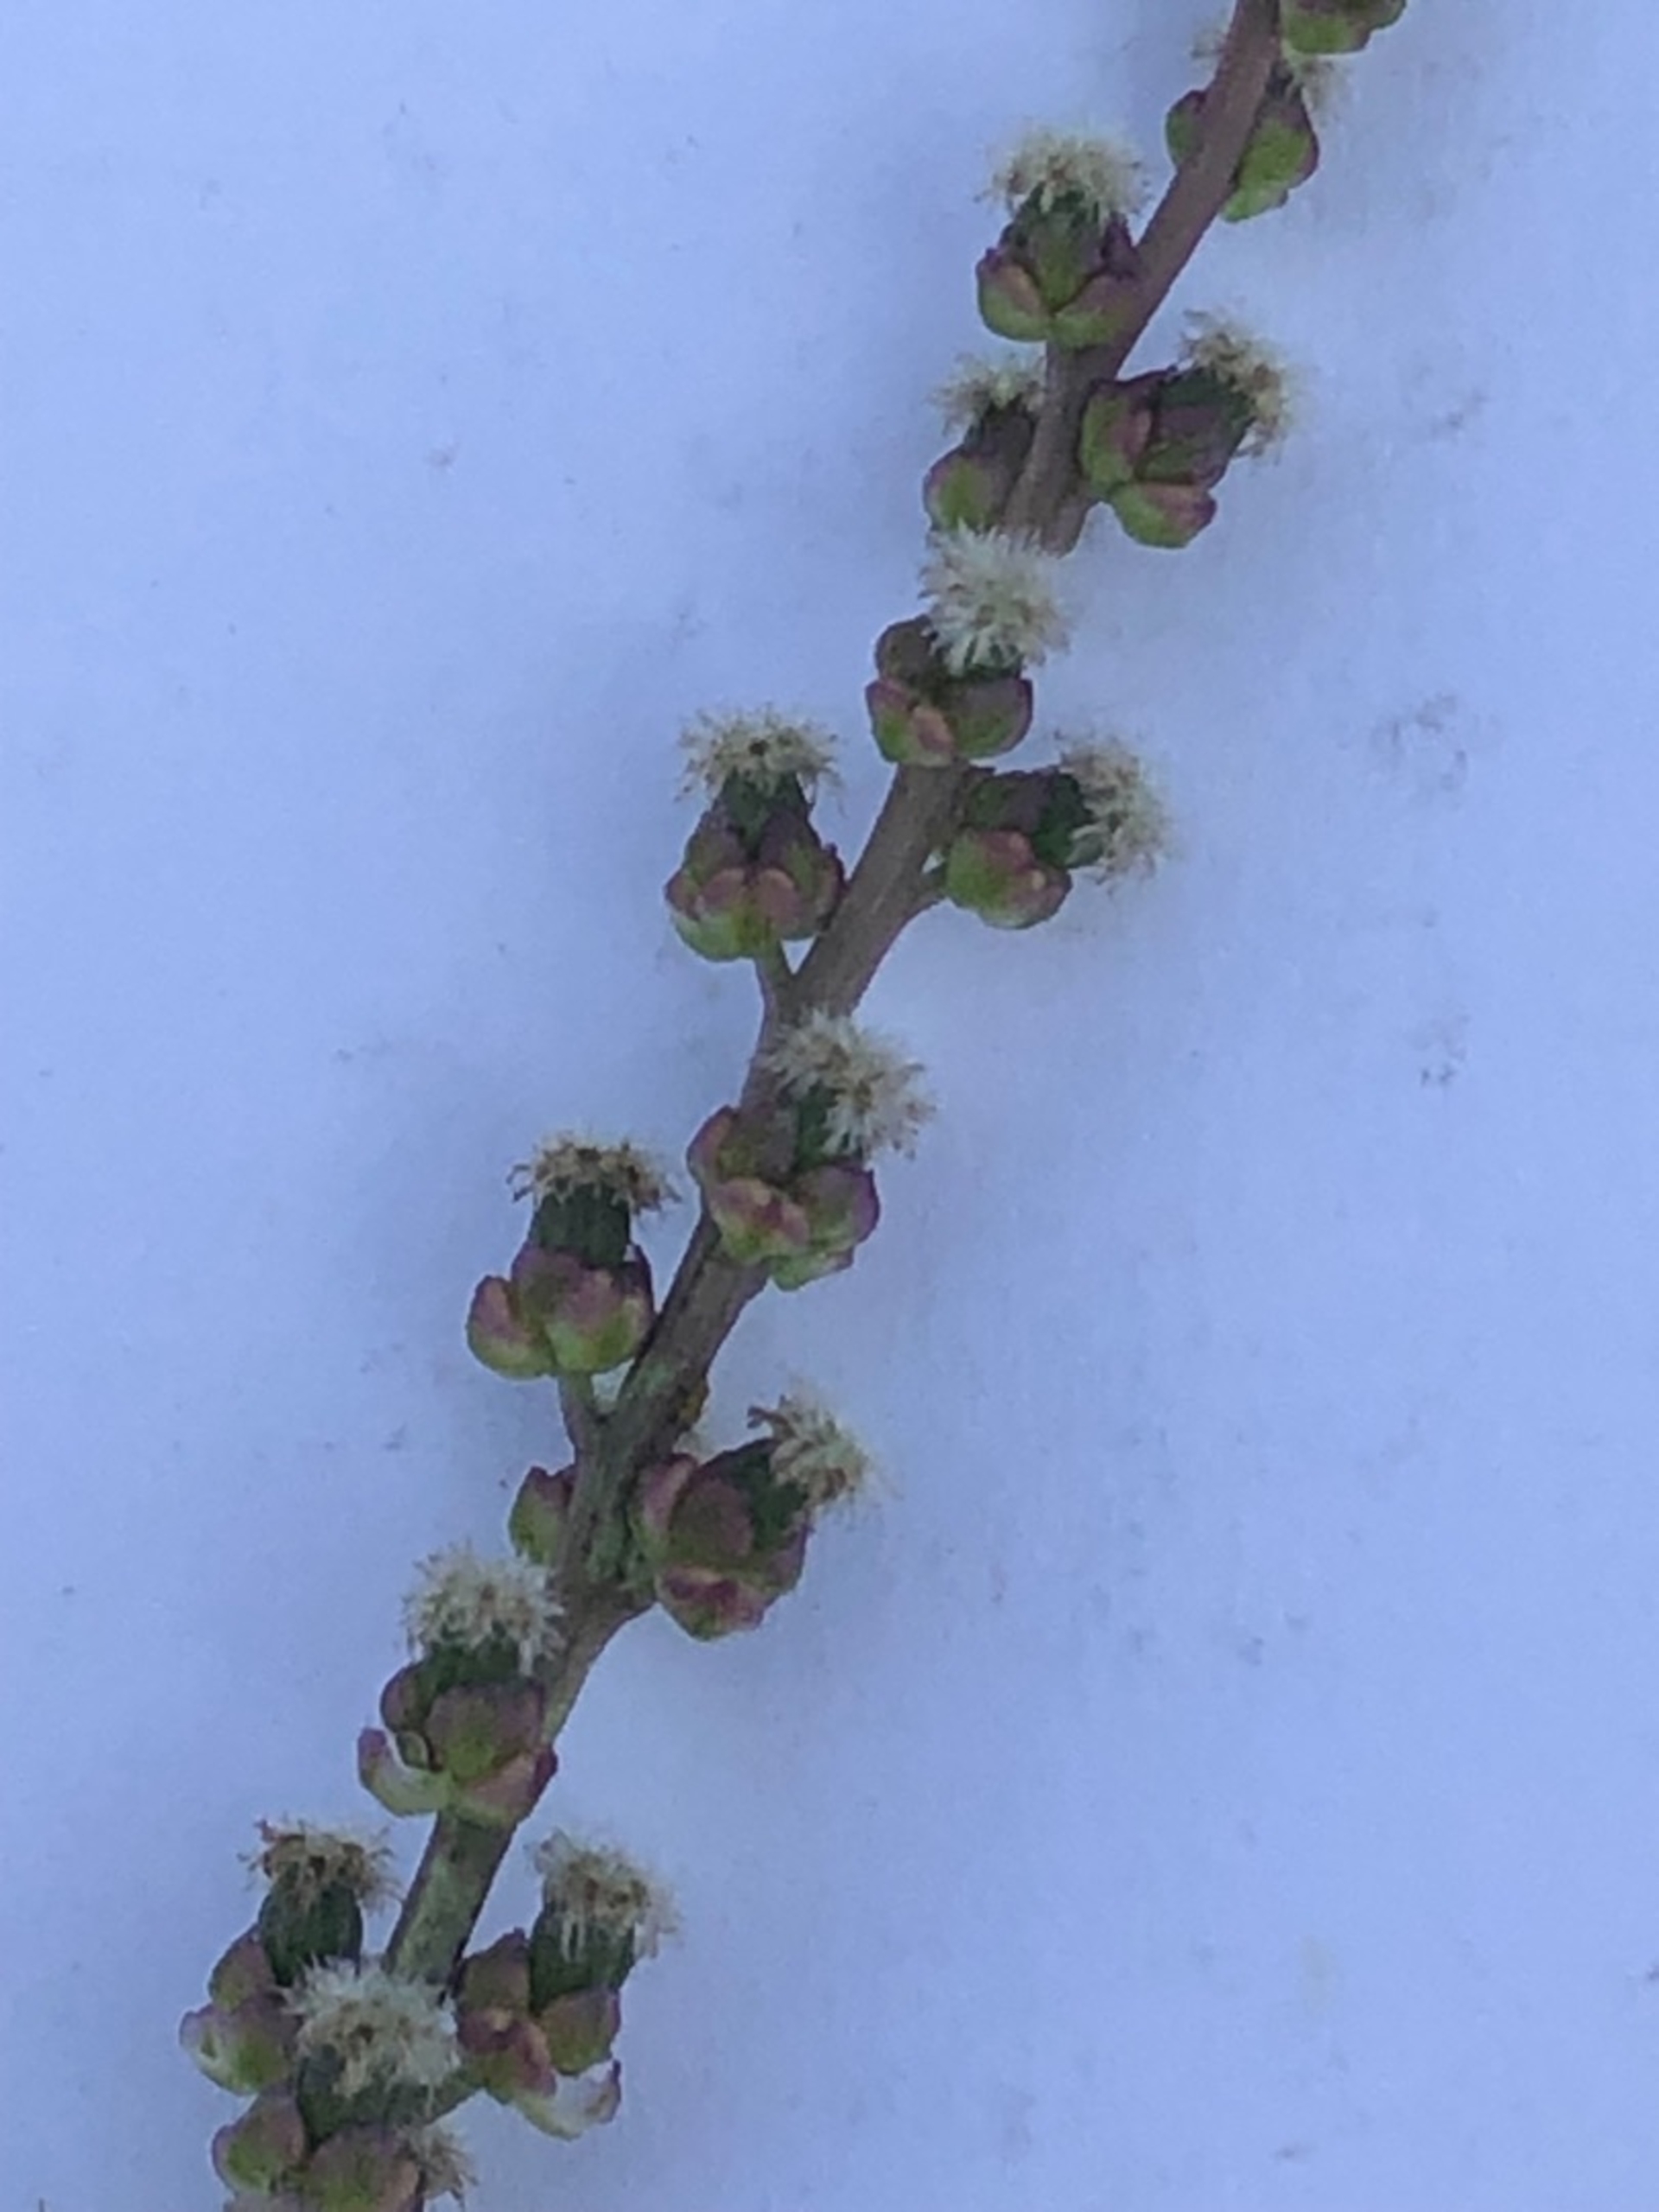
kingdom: Plantae
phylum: Tracheophyta
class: Liliopsida
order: Alismatales
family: Juncaginaceae
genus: Triglochin
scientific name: Triglochin maritima
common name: Strand-trehage
